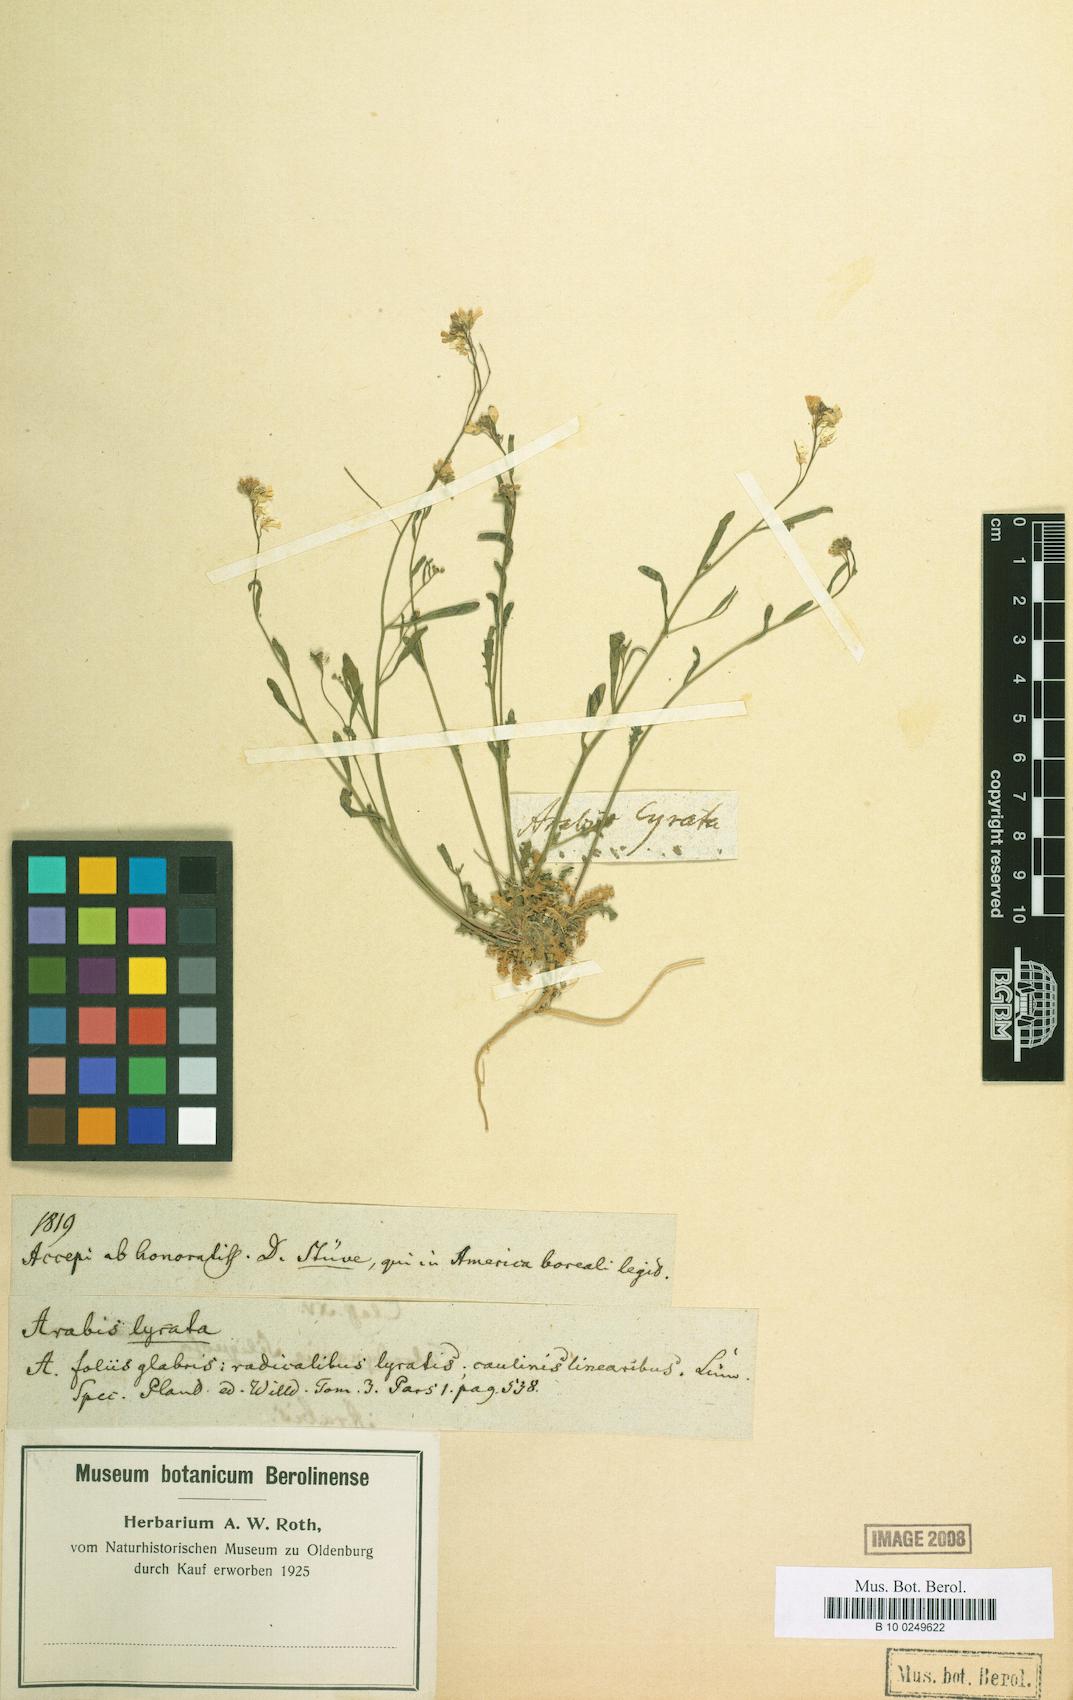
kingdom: Plantae
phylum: Tracheophyta
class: Magnoliopsida
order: Brassicales
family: Brassicaceae
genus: Arabidopsis
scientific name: Arabidopsis lyrata
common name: Lyrate rockcress
